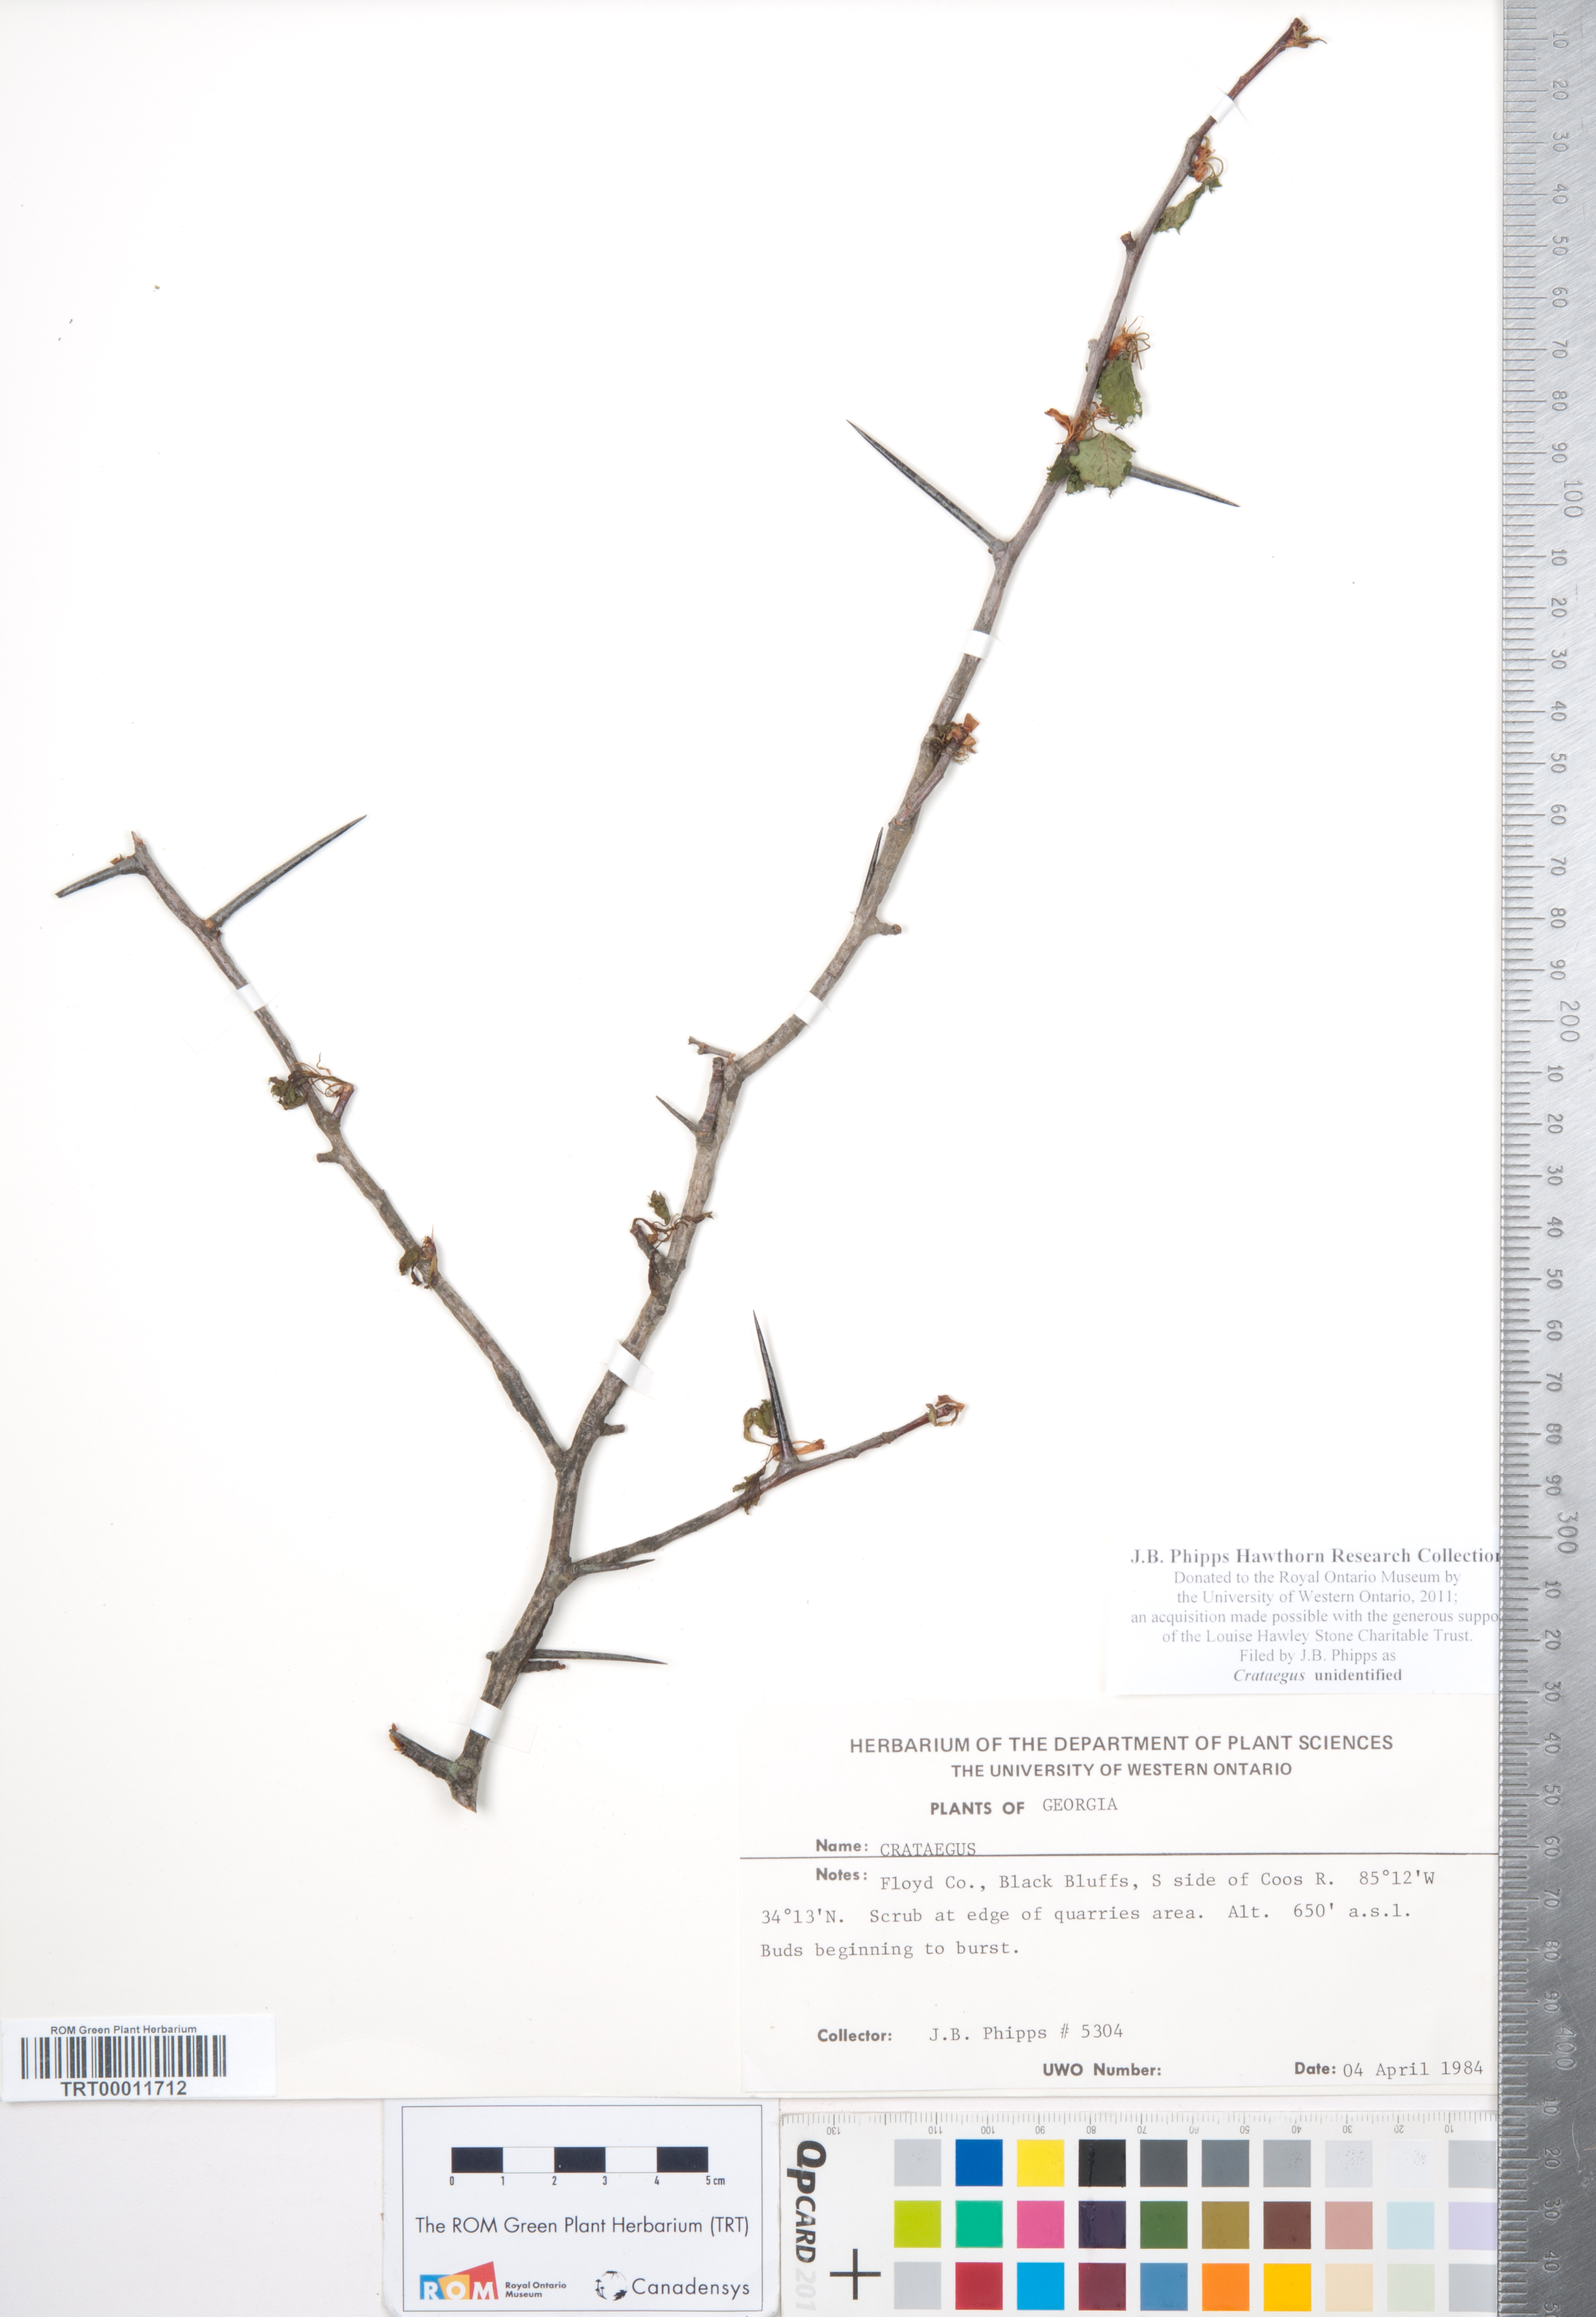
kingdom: Plantae
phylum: Tracheophyta
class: Magnoliopsida
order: Rosales
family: Rosaceae
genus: Crataegus
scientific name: Crataegus
